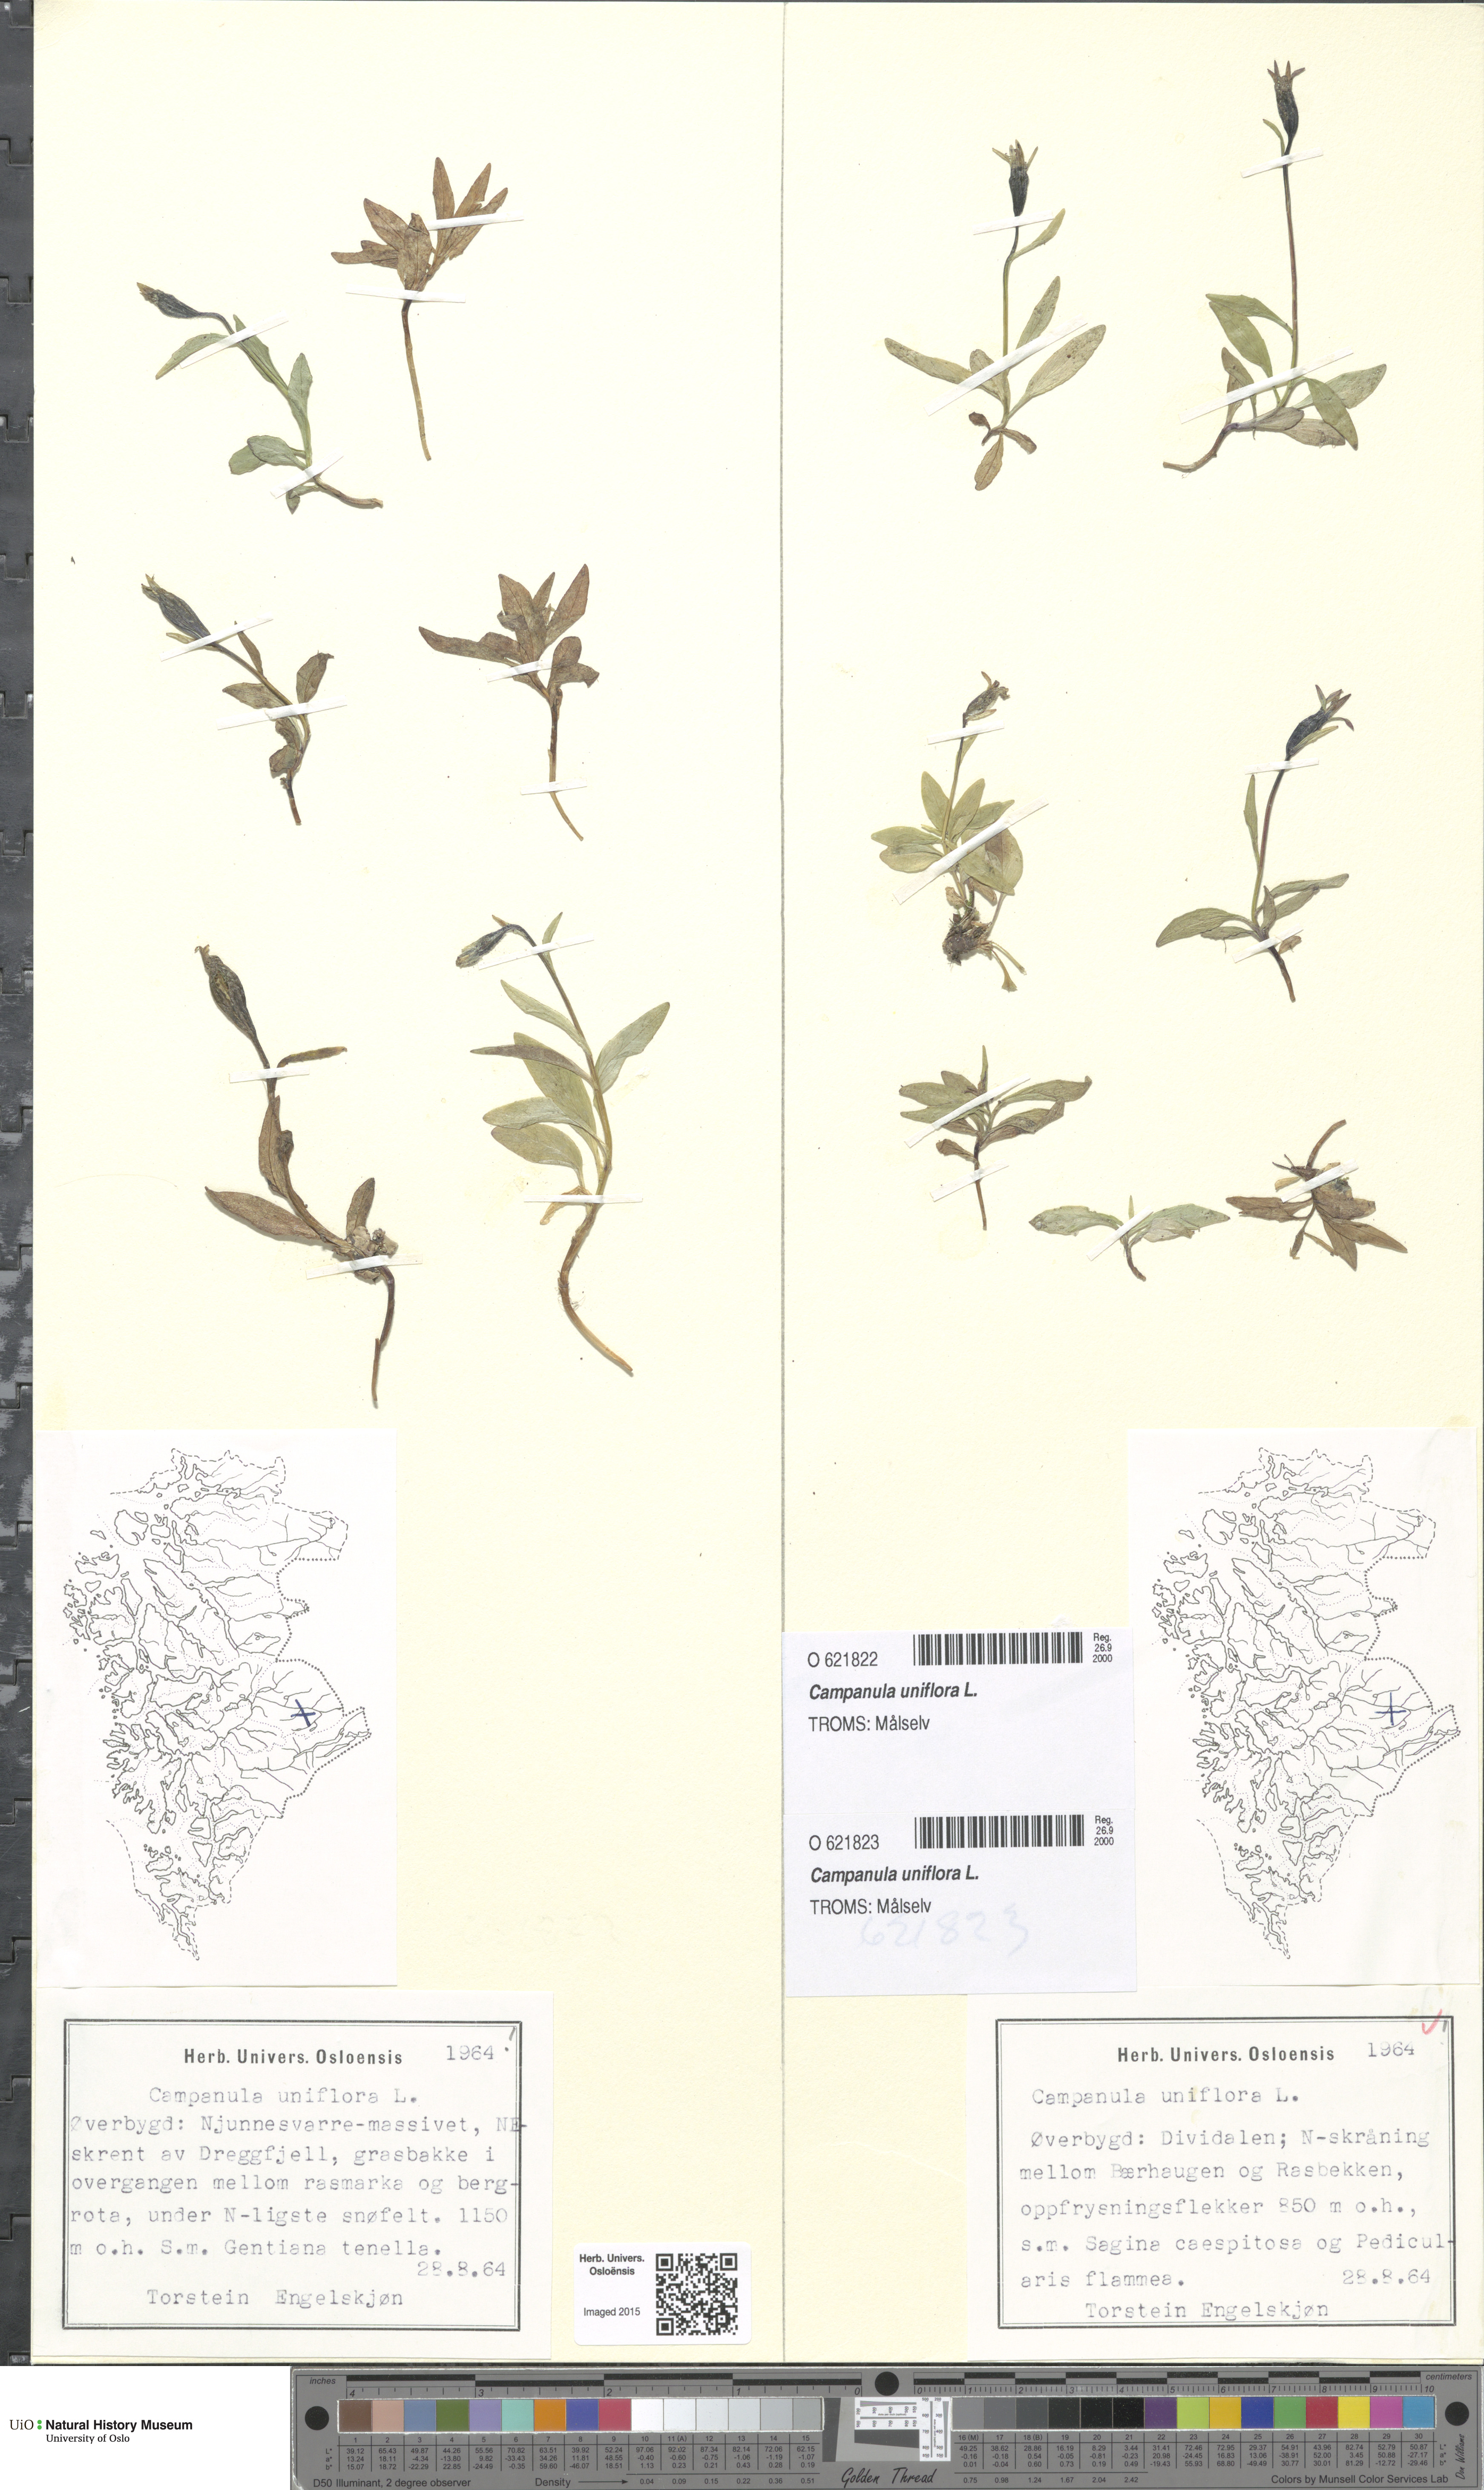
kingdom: Plantae
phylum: Tracheophyta
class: Magnoliopsida
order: Asterales
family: Campanulaceae
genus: Melanocalyx
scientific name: Melanocalyx uniflora
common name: Alpine harebell
